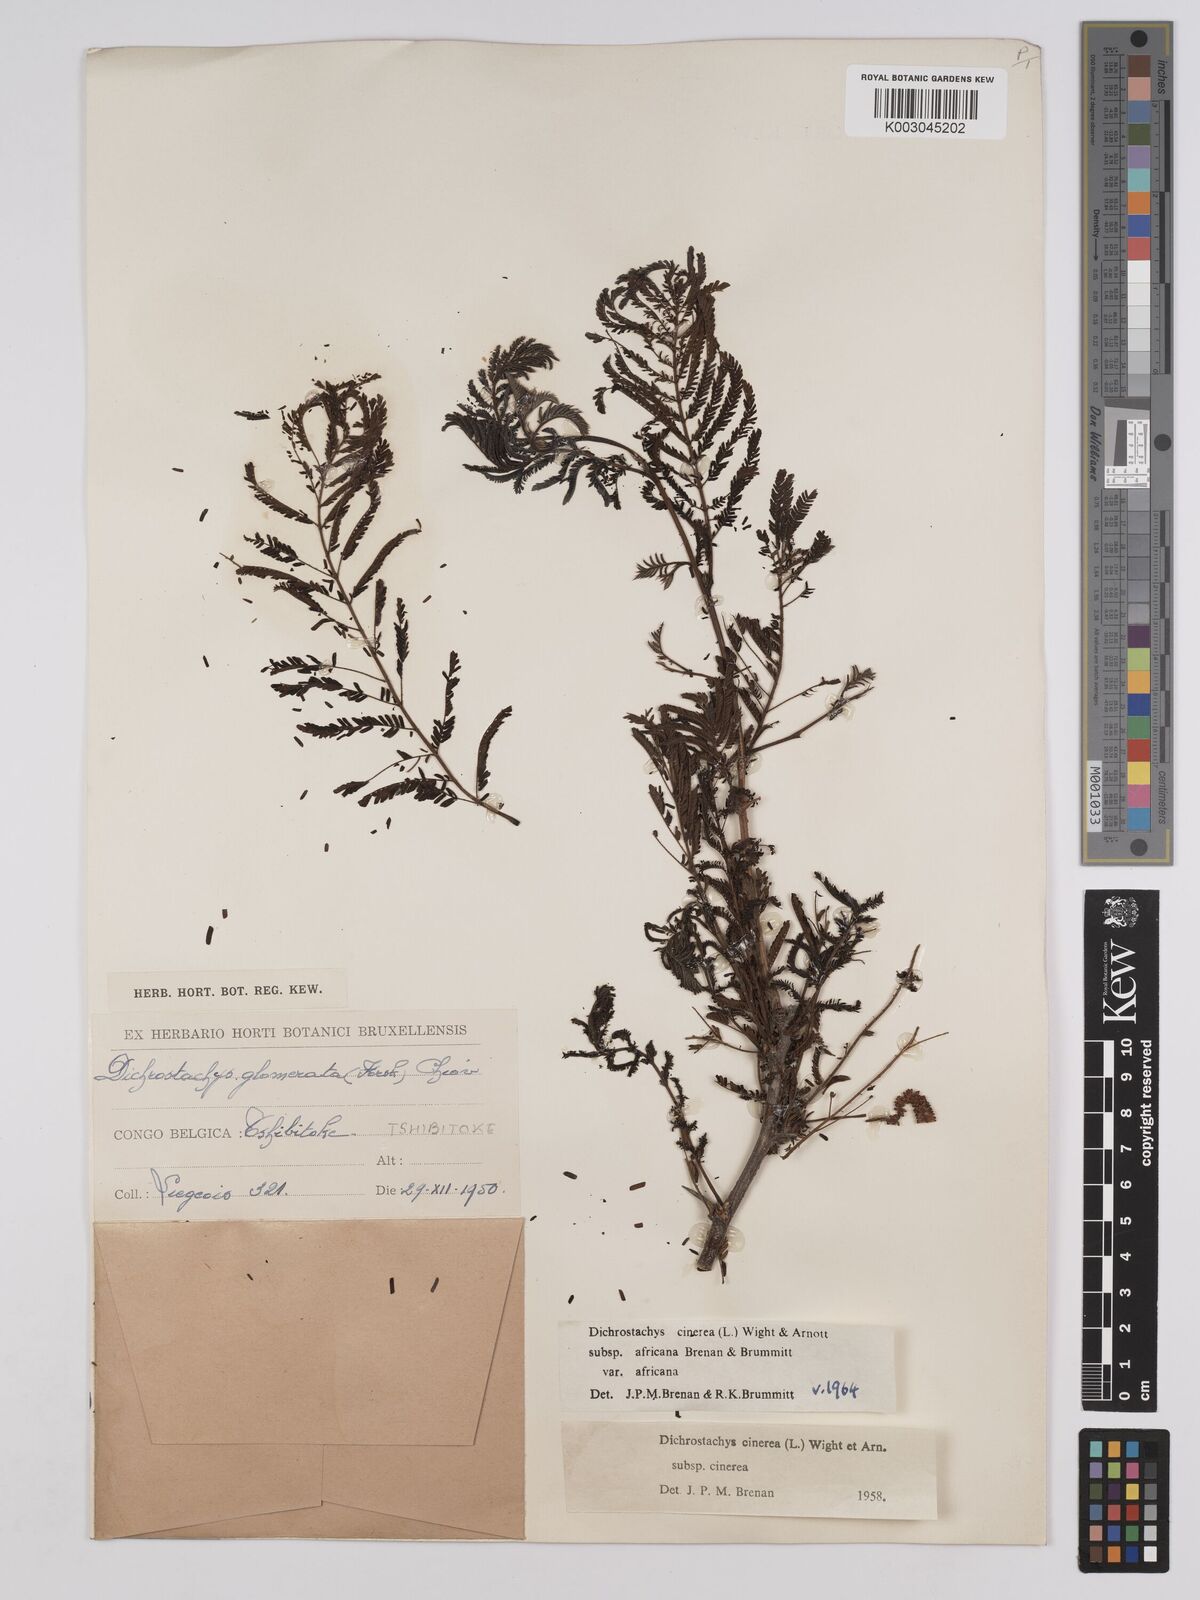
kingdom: Plantae
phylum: Tracheophyta
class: Magnoliopsida
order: Fabales
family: Fabaceae
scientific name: Fabaceae
